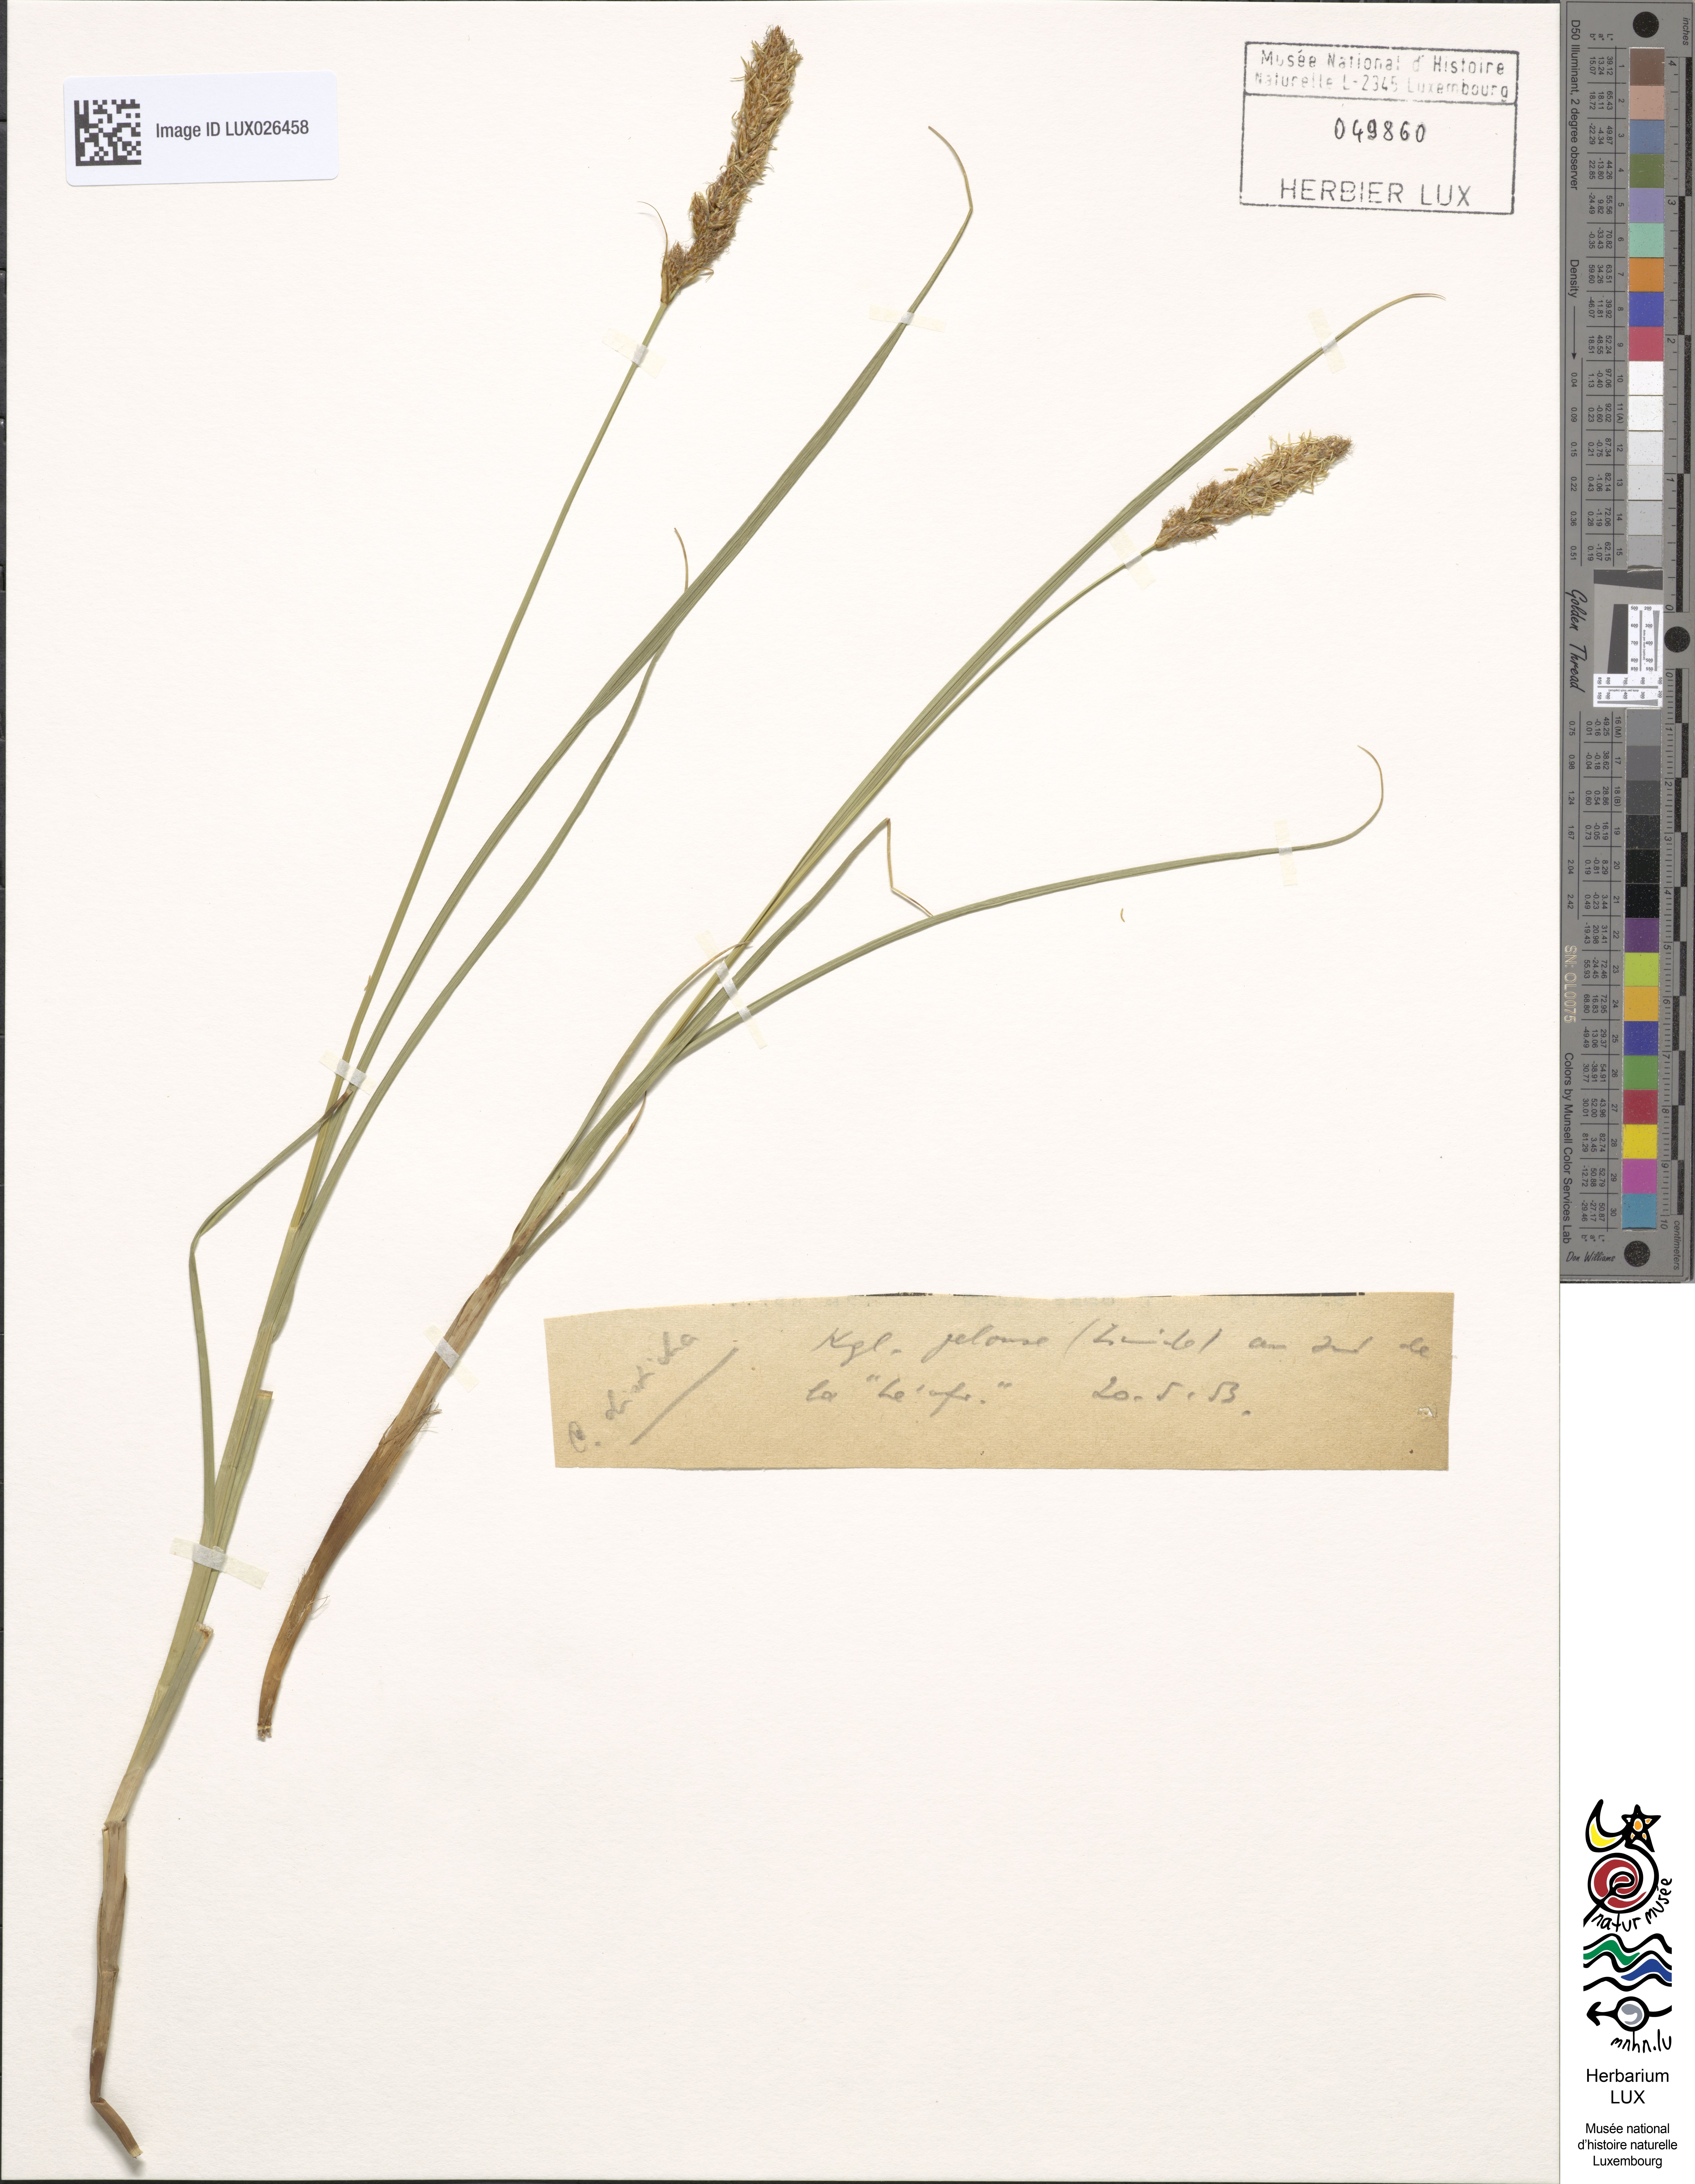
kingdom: Plantae
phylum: Tracheophyta
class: Liliopsida
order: Poales
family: Cyperaceae
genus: Carex
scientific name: Carex disticha
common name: Brown sedge
